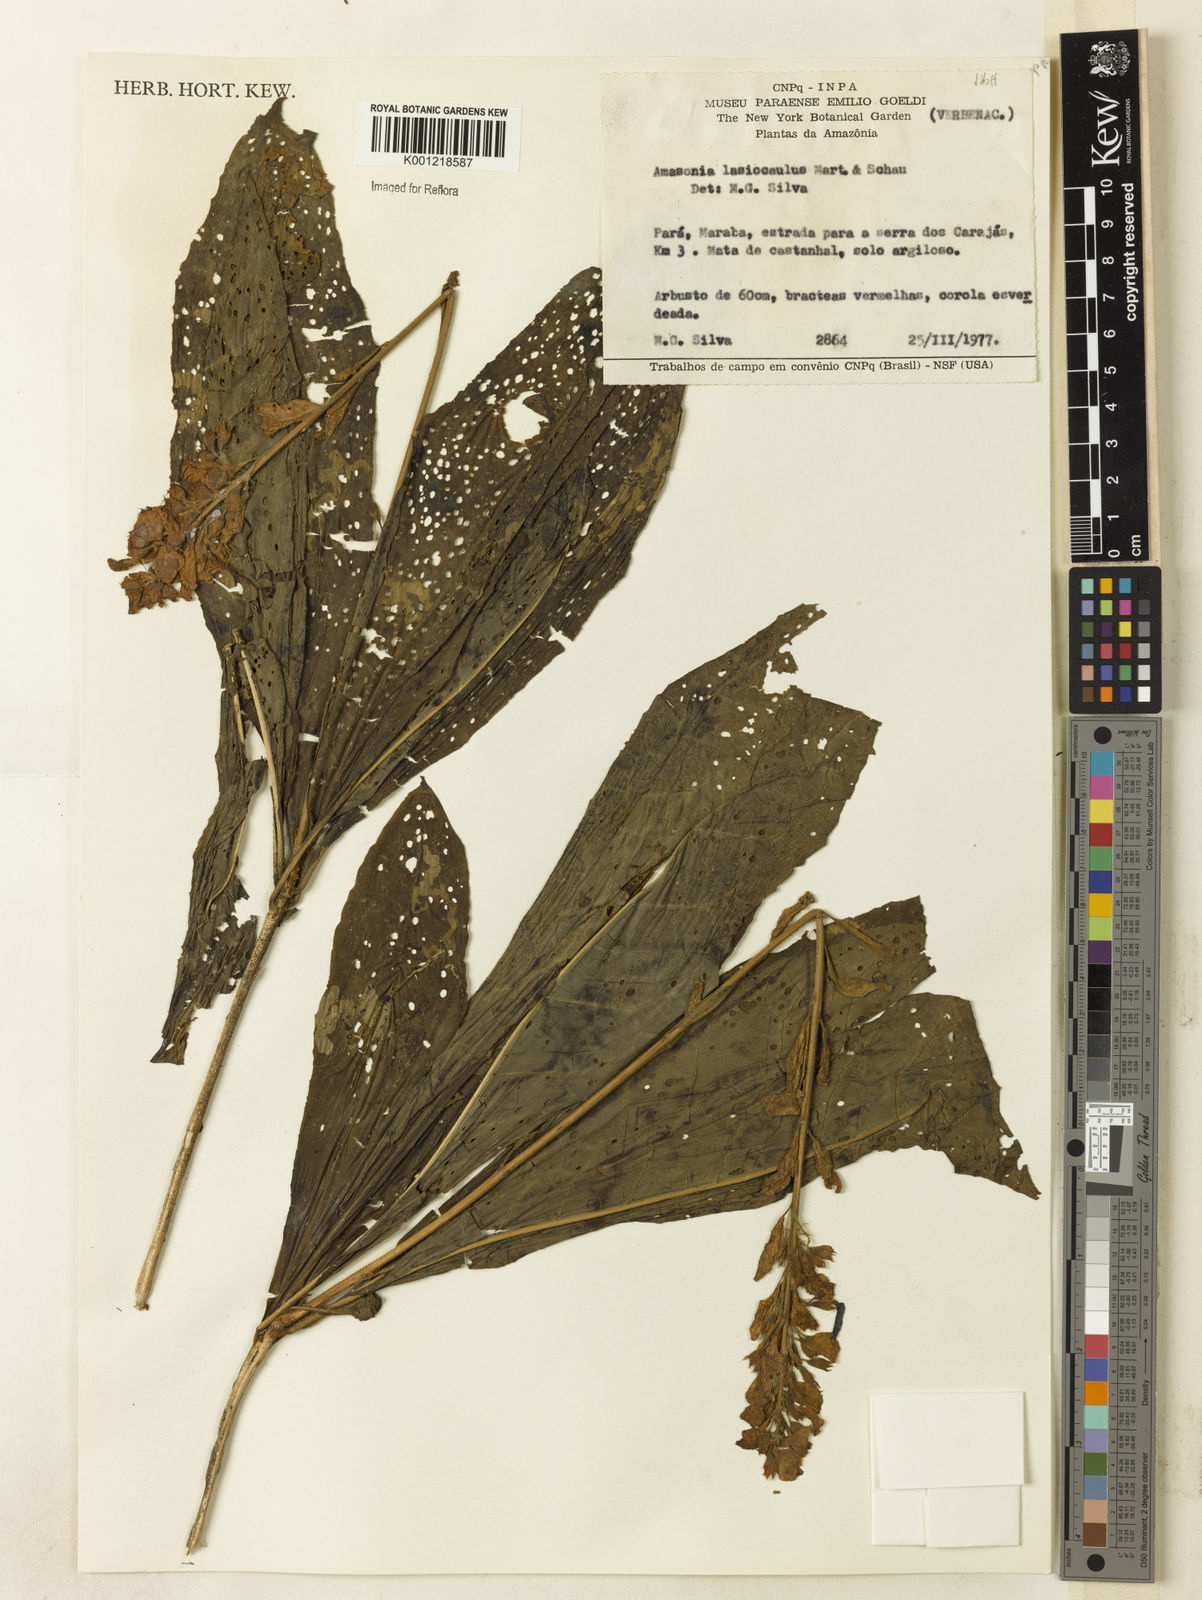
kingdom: Plantae
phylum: Tracheophyta
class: Magnoliopsida
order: Lamiales
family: Lamiaceae
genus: Amasonia
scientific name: Amasonia
